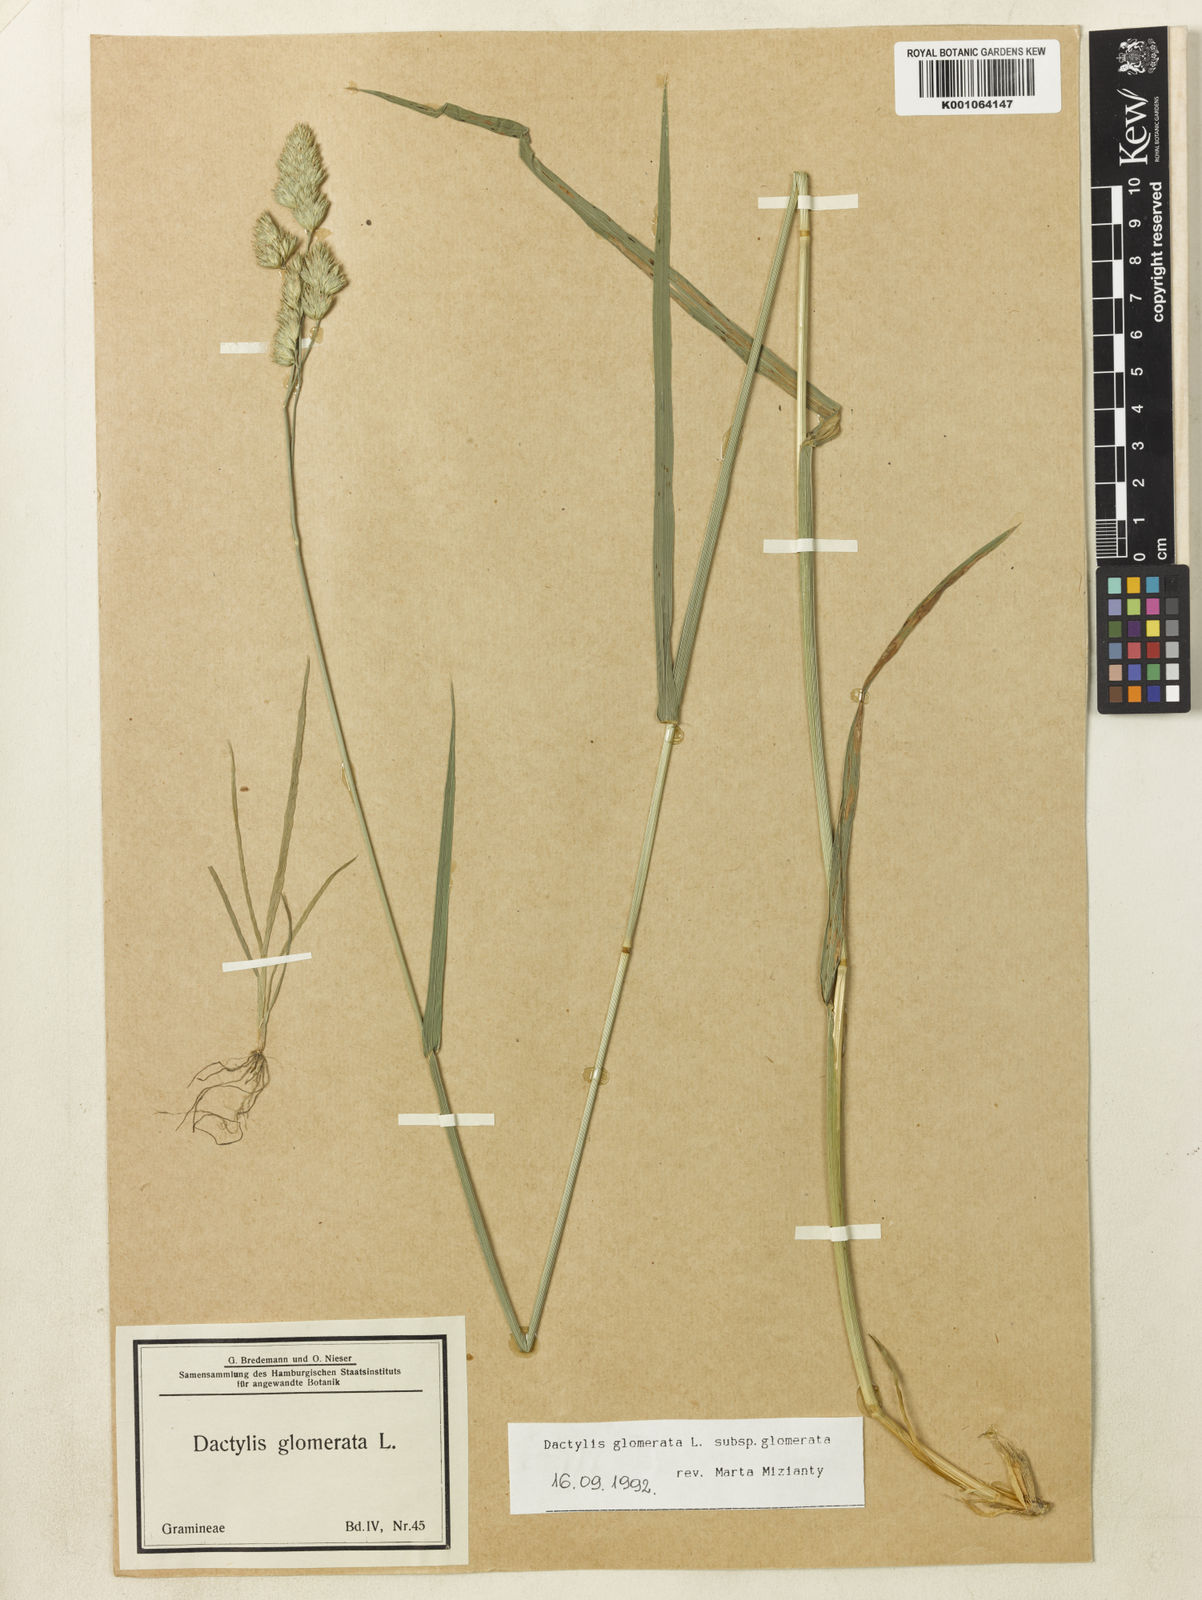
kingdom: Plantae
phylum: Tracheophyta
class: Liliopsida
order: Poales
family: Poaceae
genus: Dactylis
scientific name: Dactylis glomerata
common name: Orchardgrass
